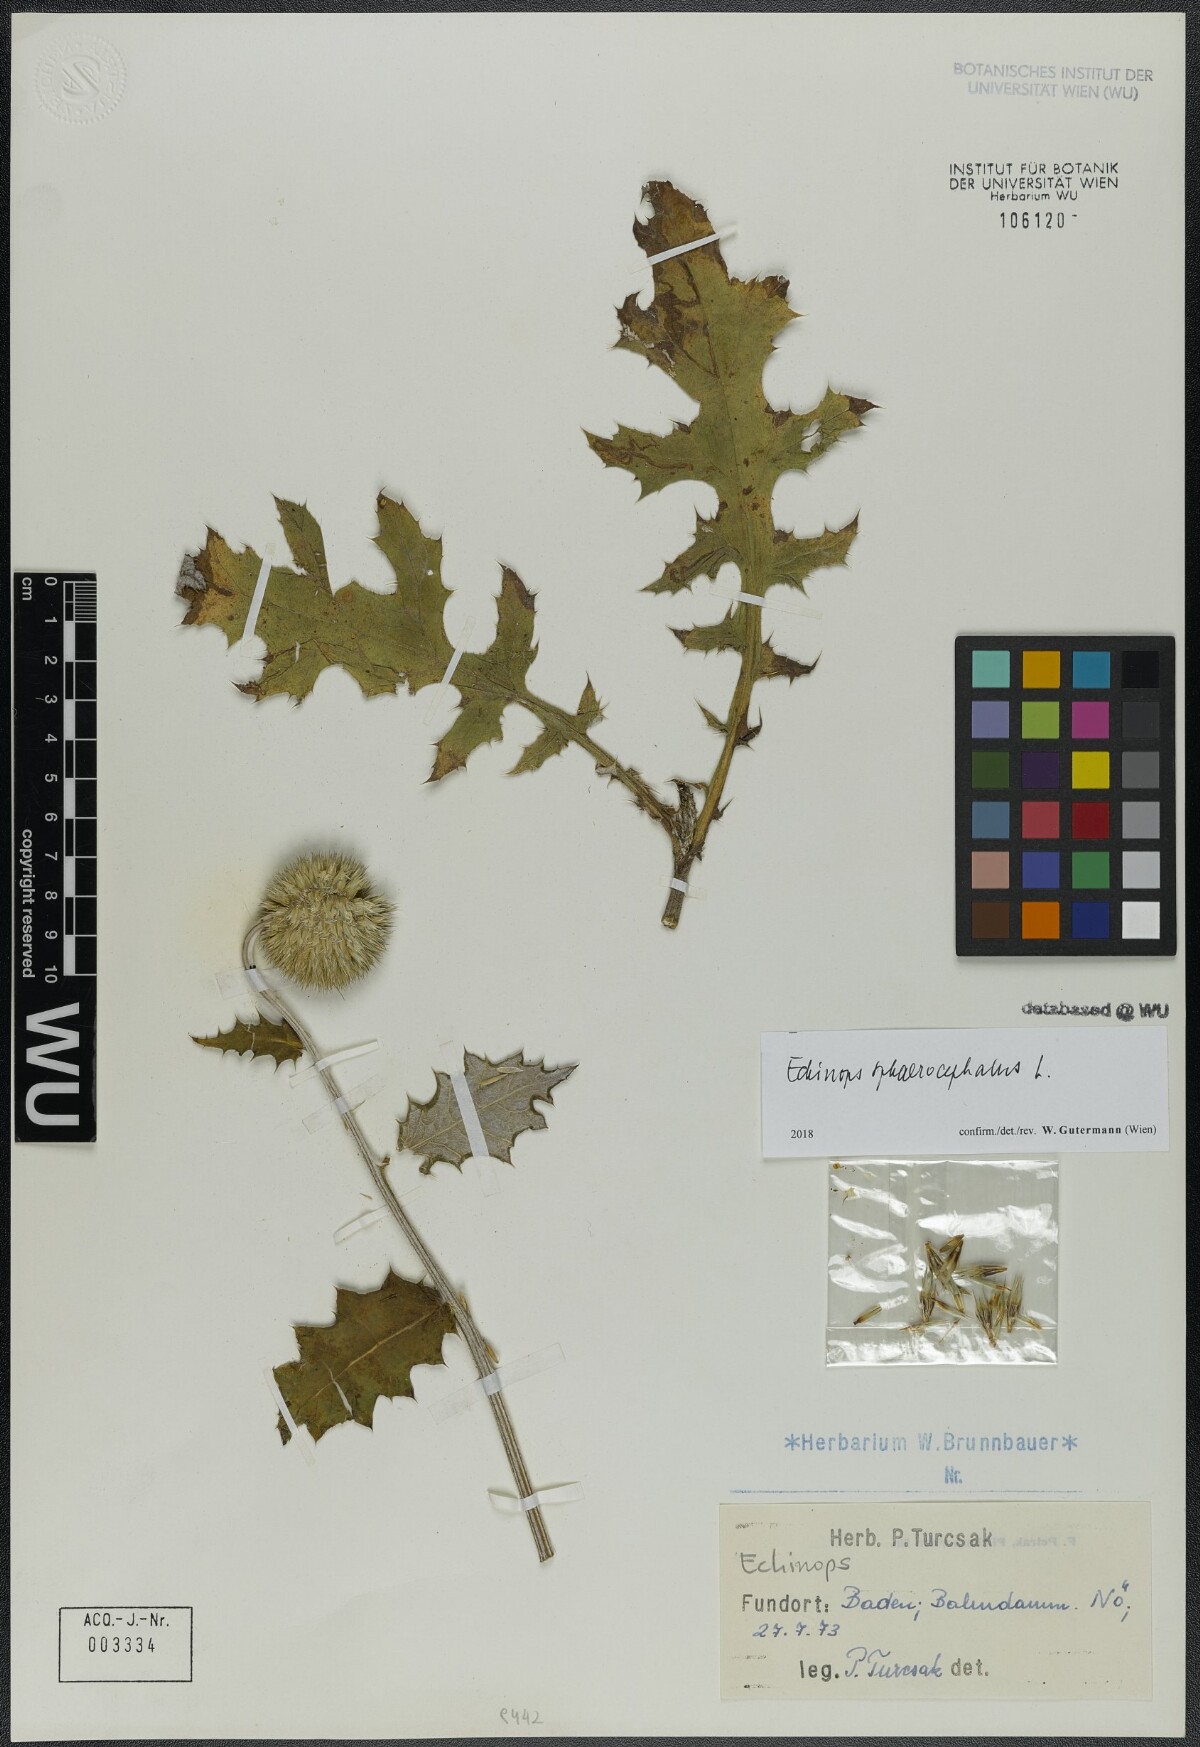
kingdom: Plantae
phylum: Tracheophyta
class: Magnoliopsida
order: Asterales
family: Asteraceae
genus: Echinops
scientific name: Echinops sphaerocephalus
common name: Glandular globe-thistle
